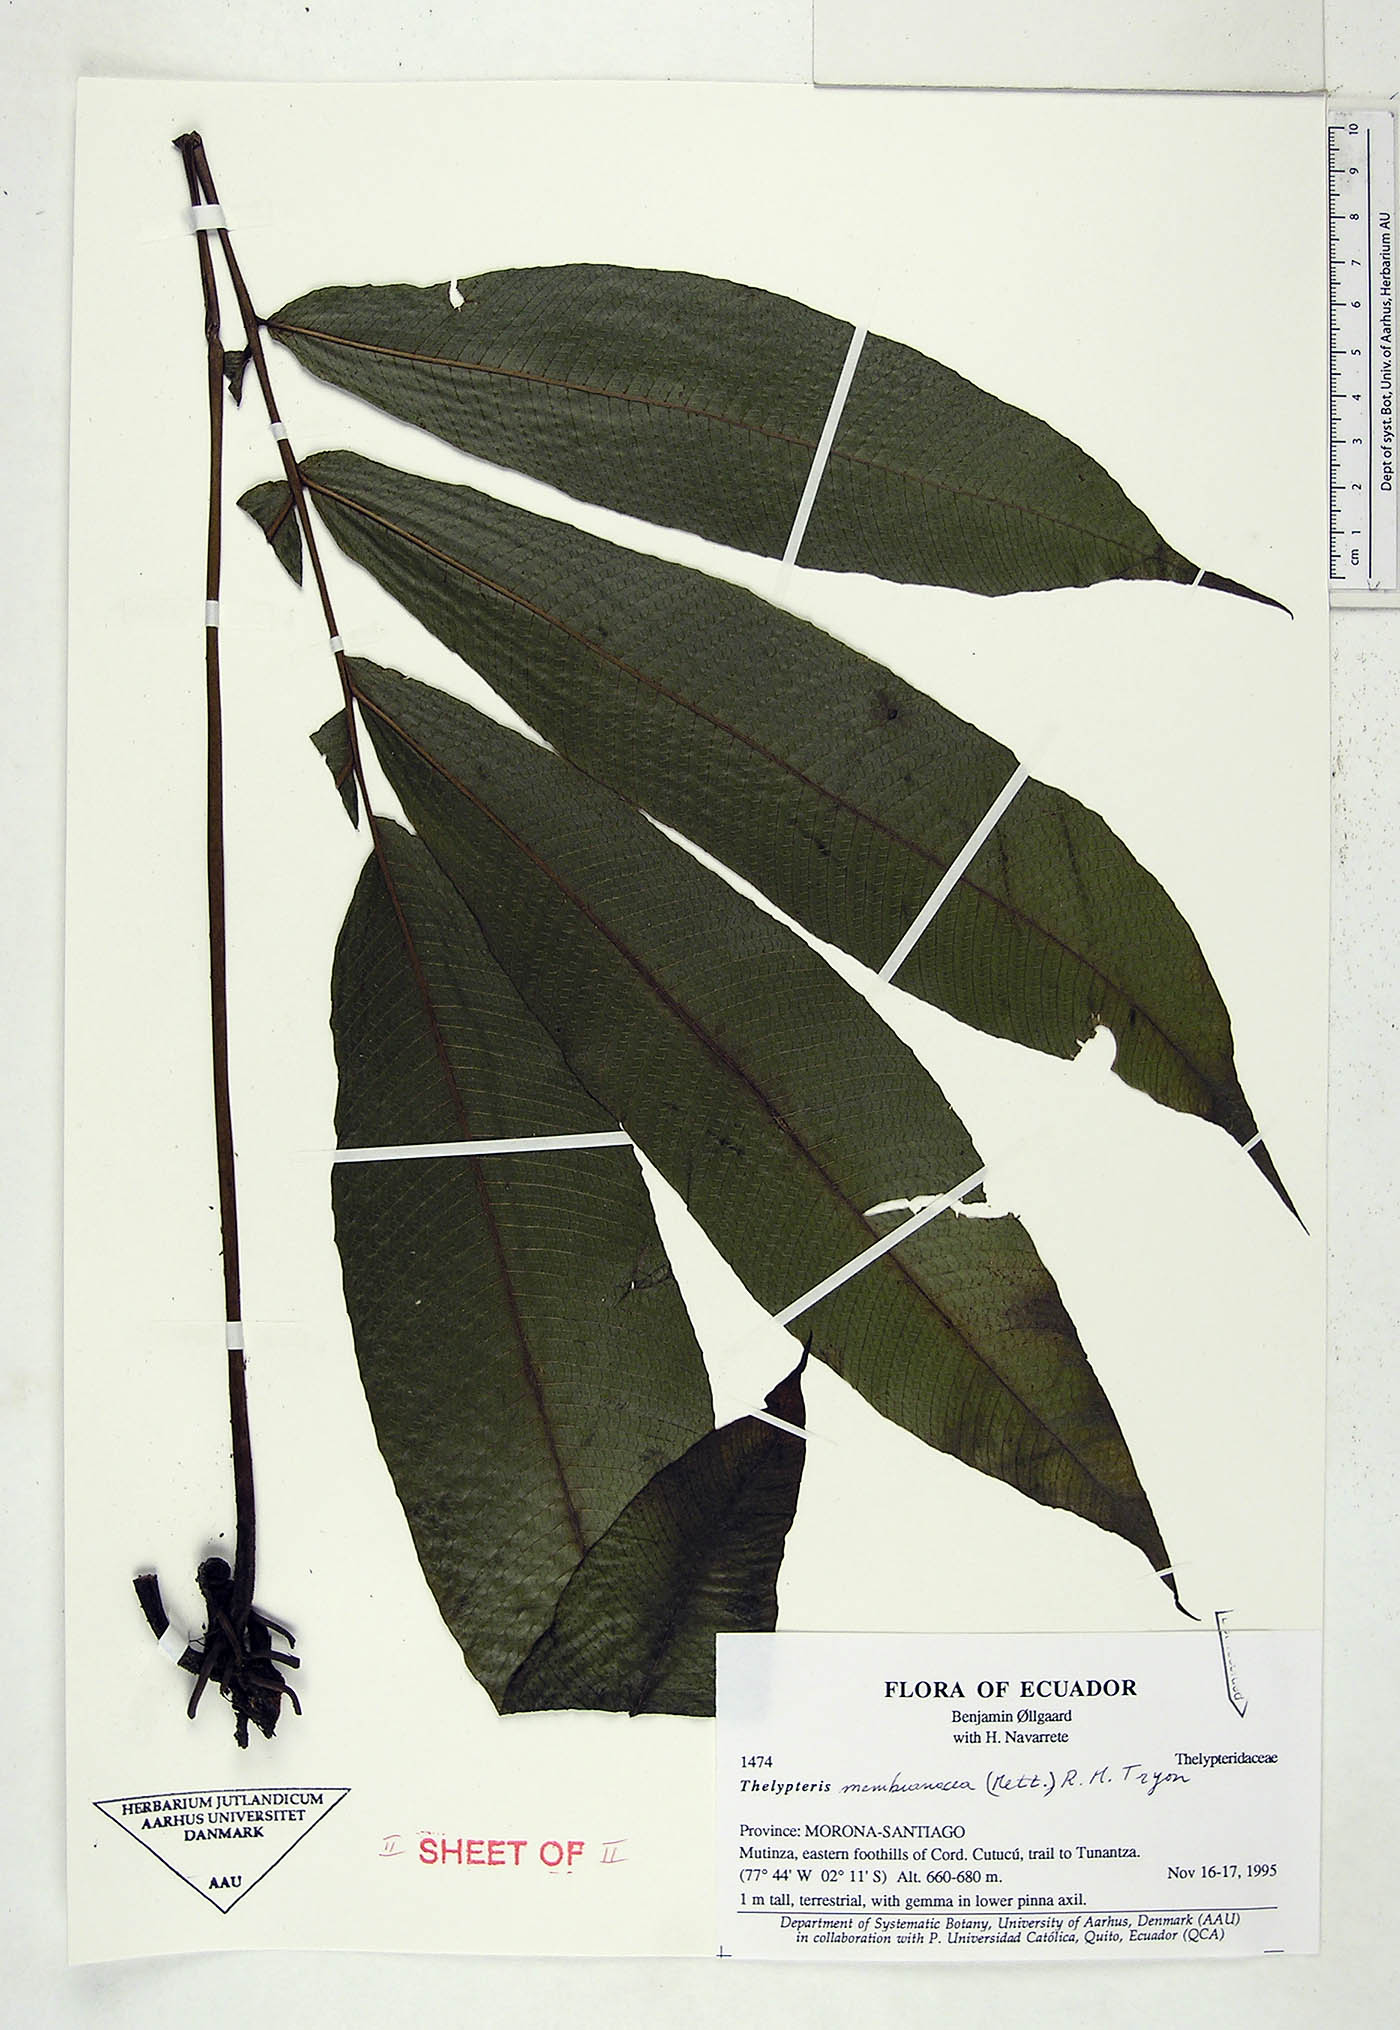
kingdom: Plantae
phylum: Tracheophyta
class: Polypodiopsida
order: Polypodiales
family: Thelypteridaceae
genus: Thelypteris
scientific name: Thelypteris
